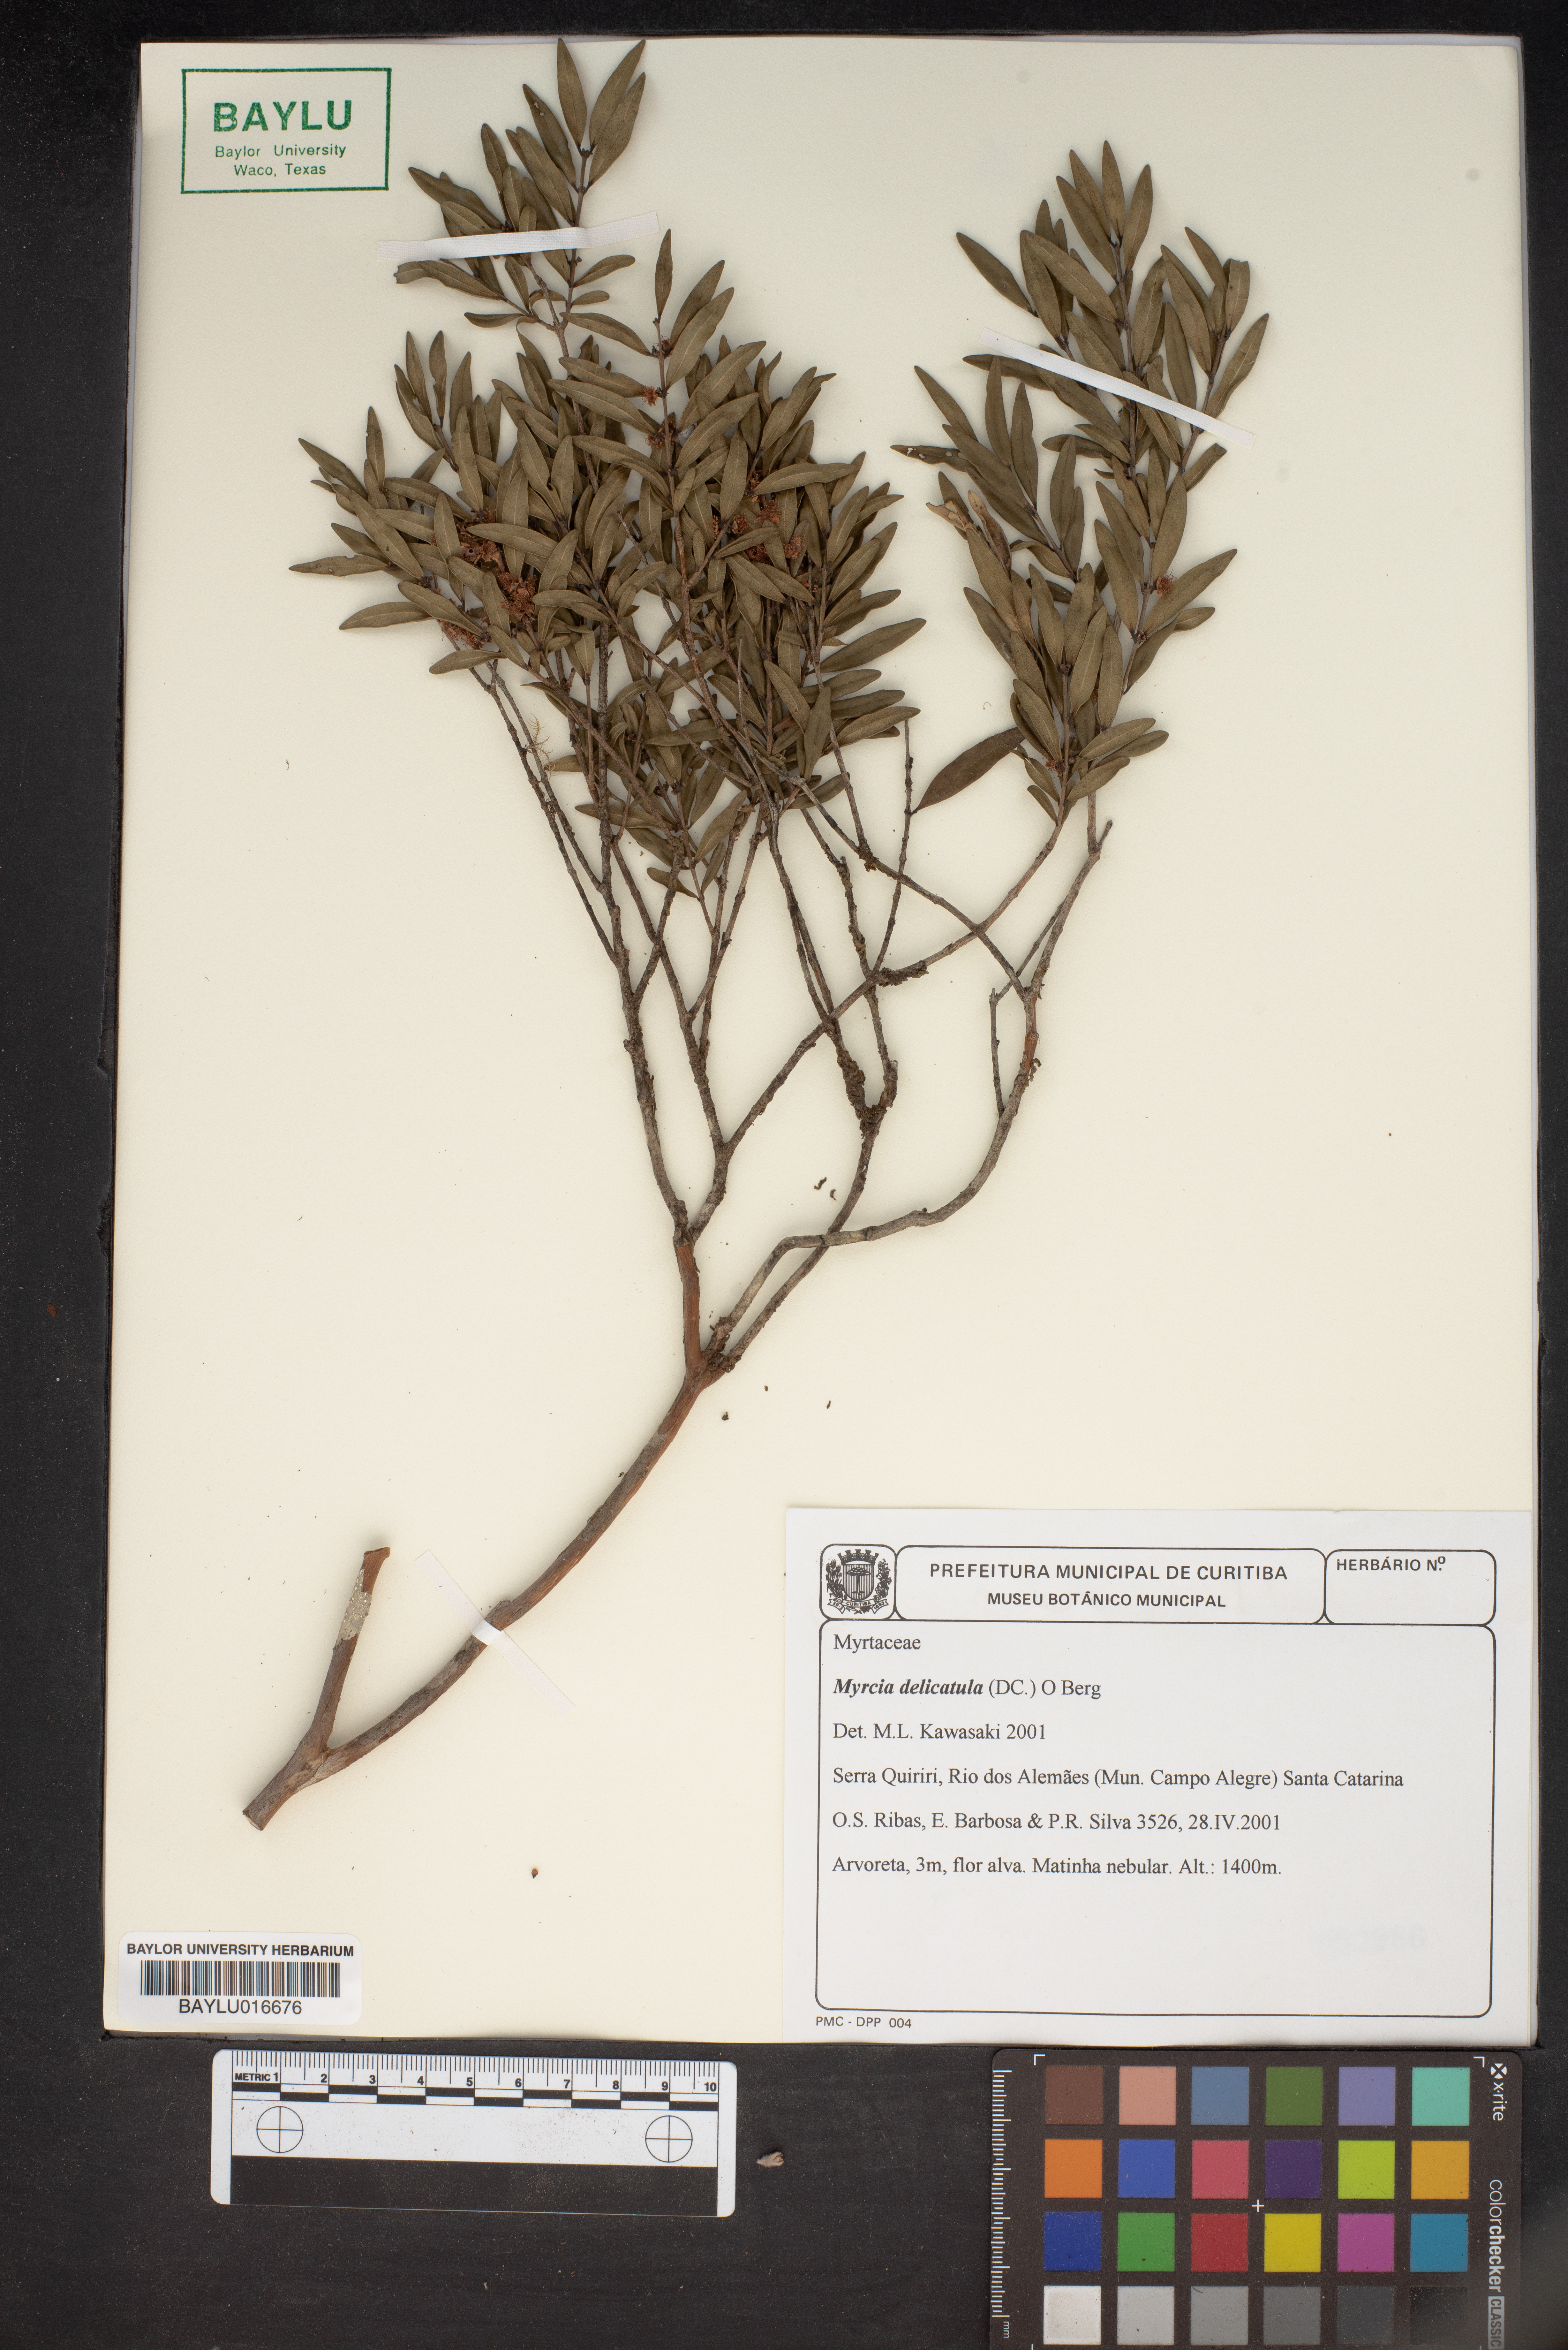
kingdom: Plantae
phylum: Tracheophyta
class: Magnoliopsida
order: Myrtales
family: Myrtaceae
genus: Myrcia
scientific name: Myrcia delicatula
